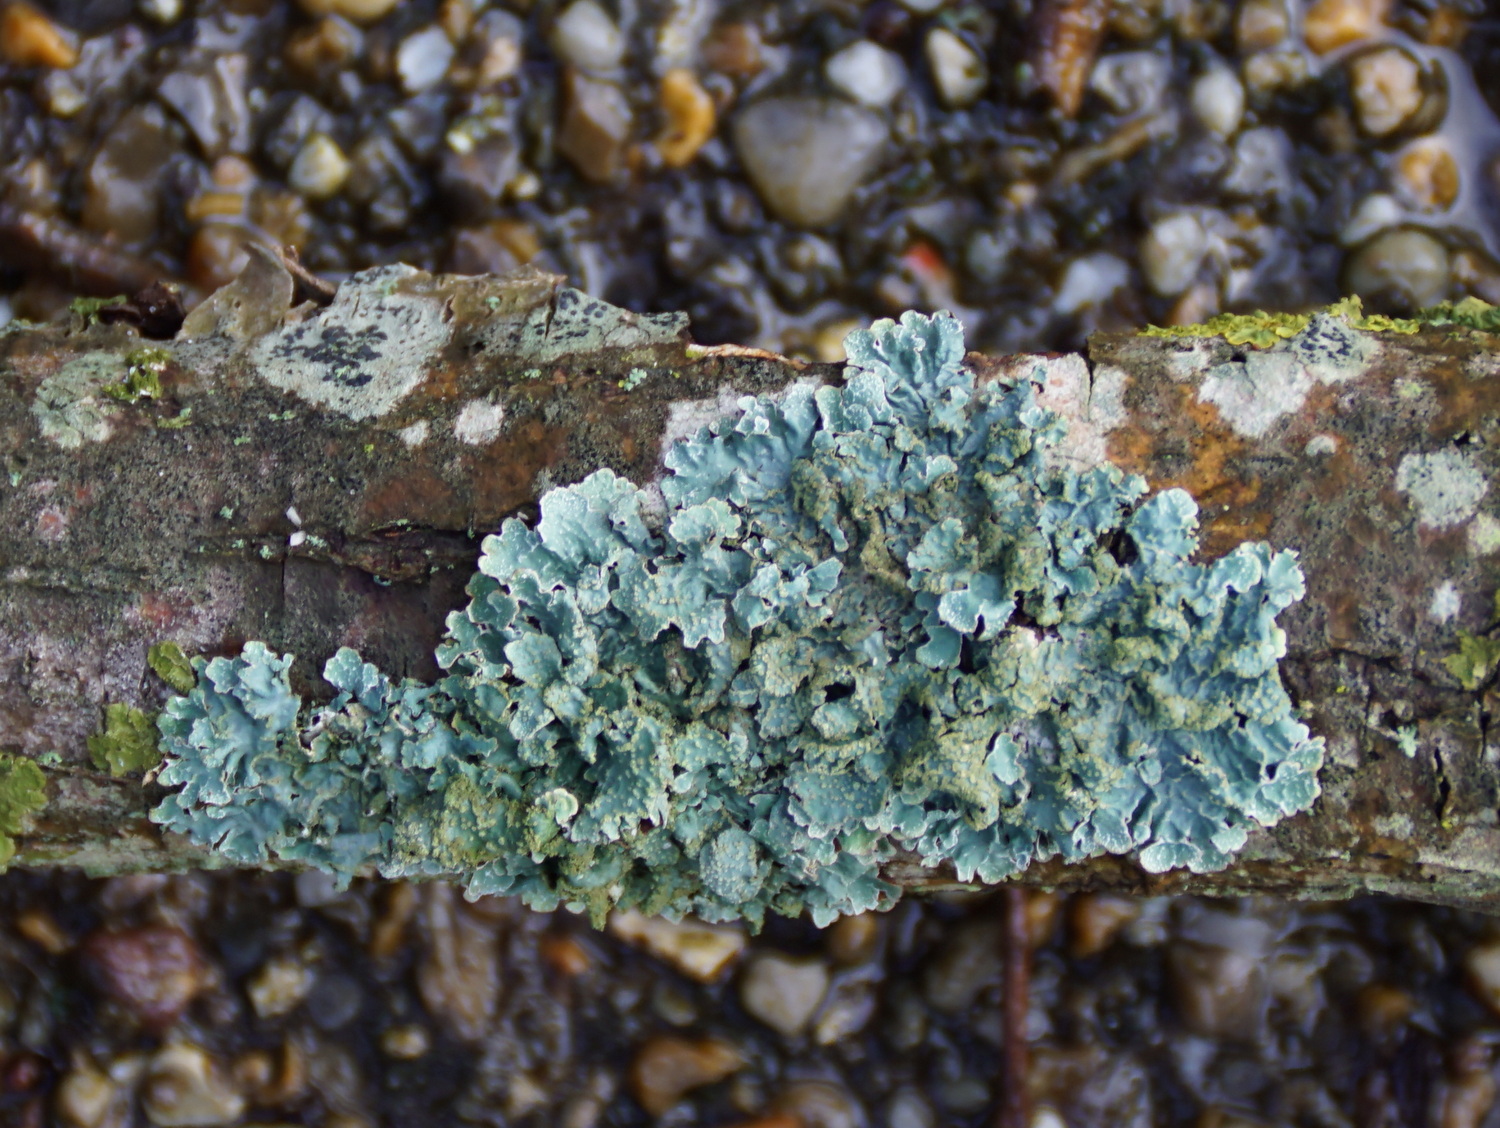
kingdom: Fungi
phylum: Ascomycota
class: Lecanoromycetes
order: Lecanorales
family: Parmeliaceae
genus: Parmelia
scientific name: Parmelia sulcata
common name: rynket skållav
